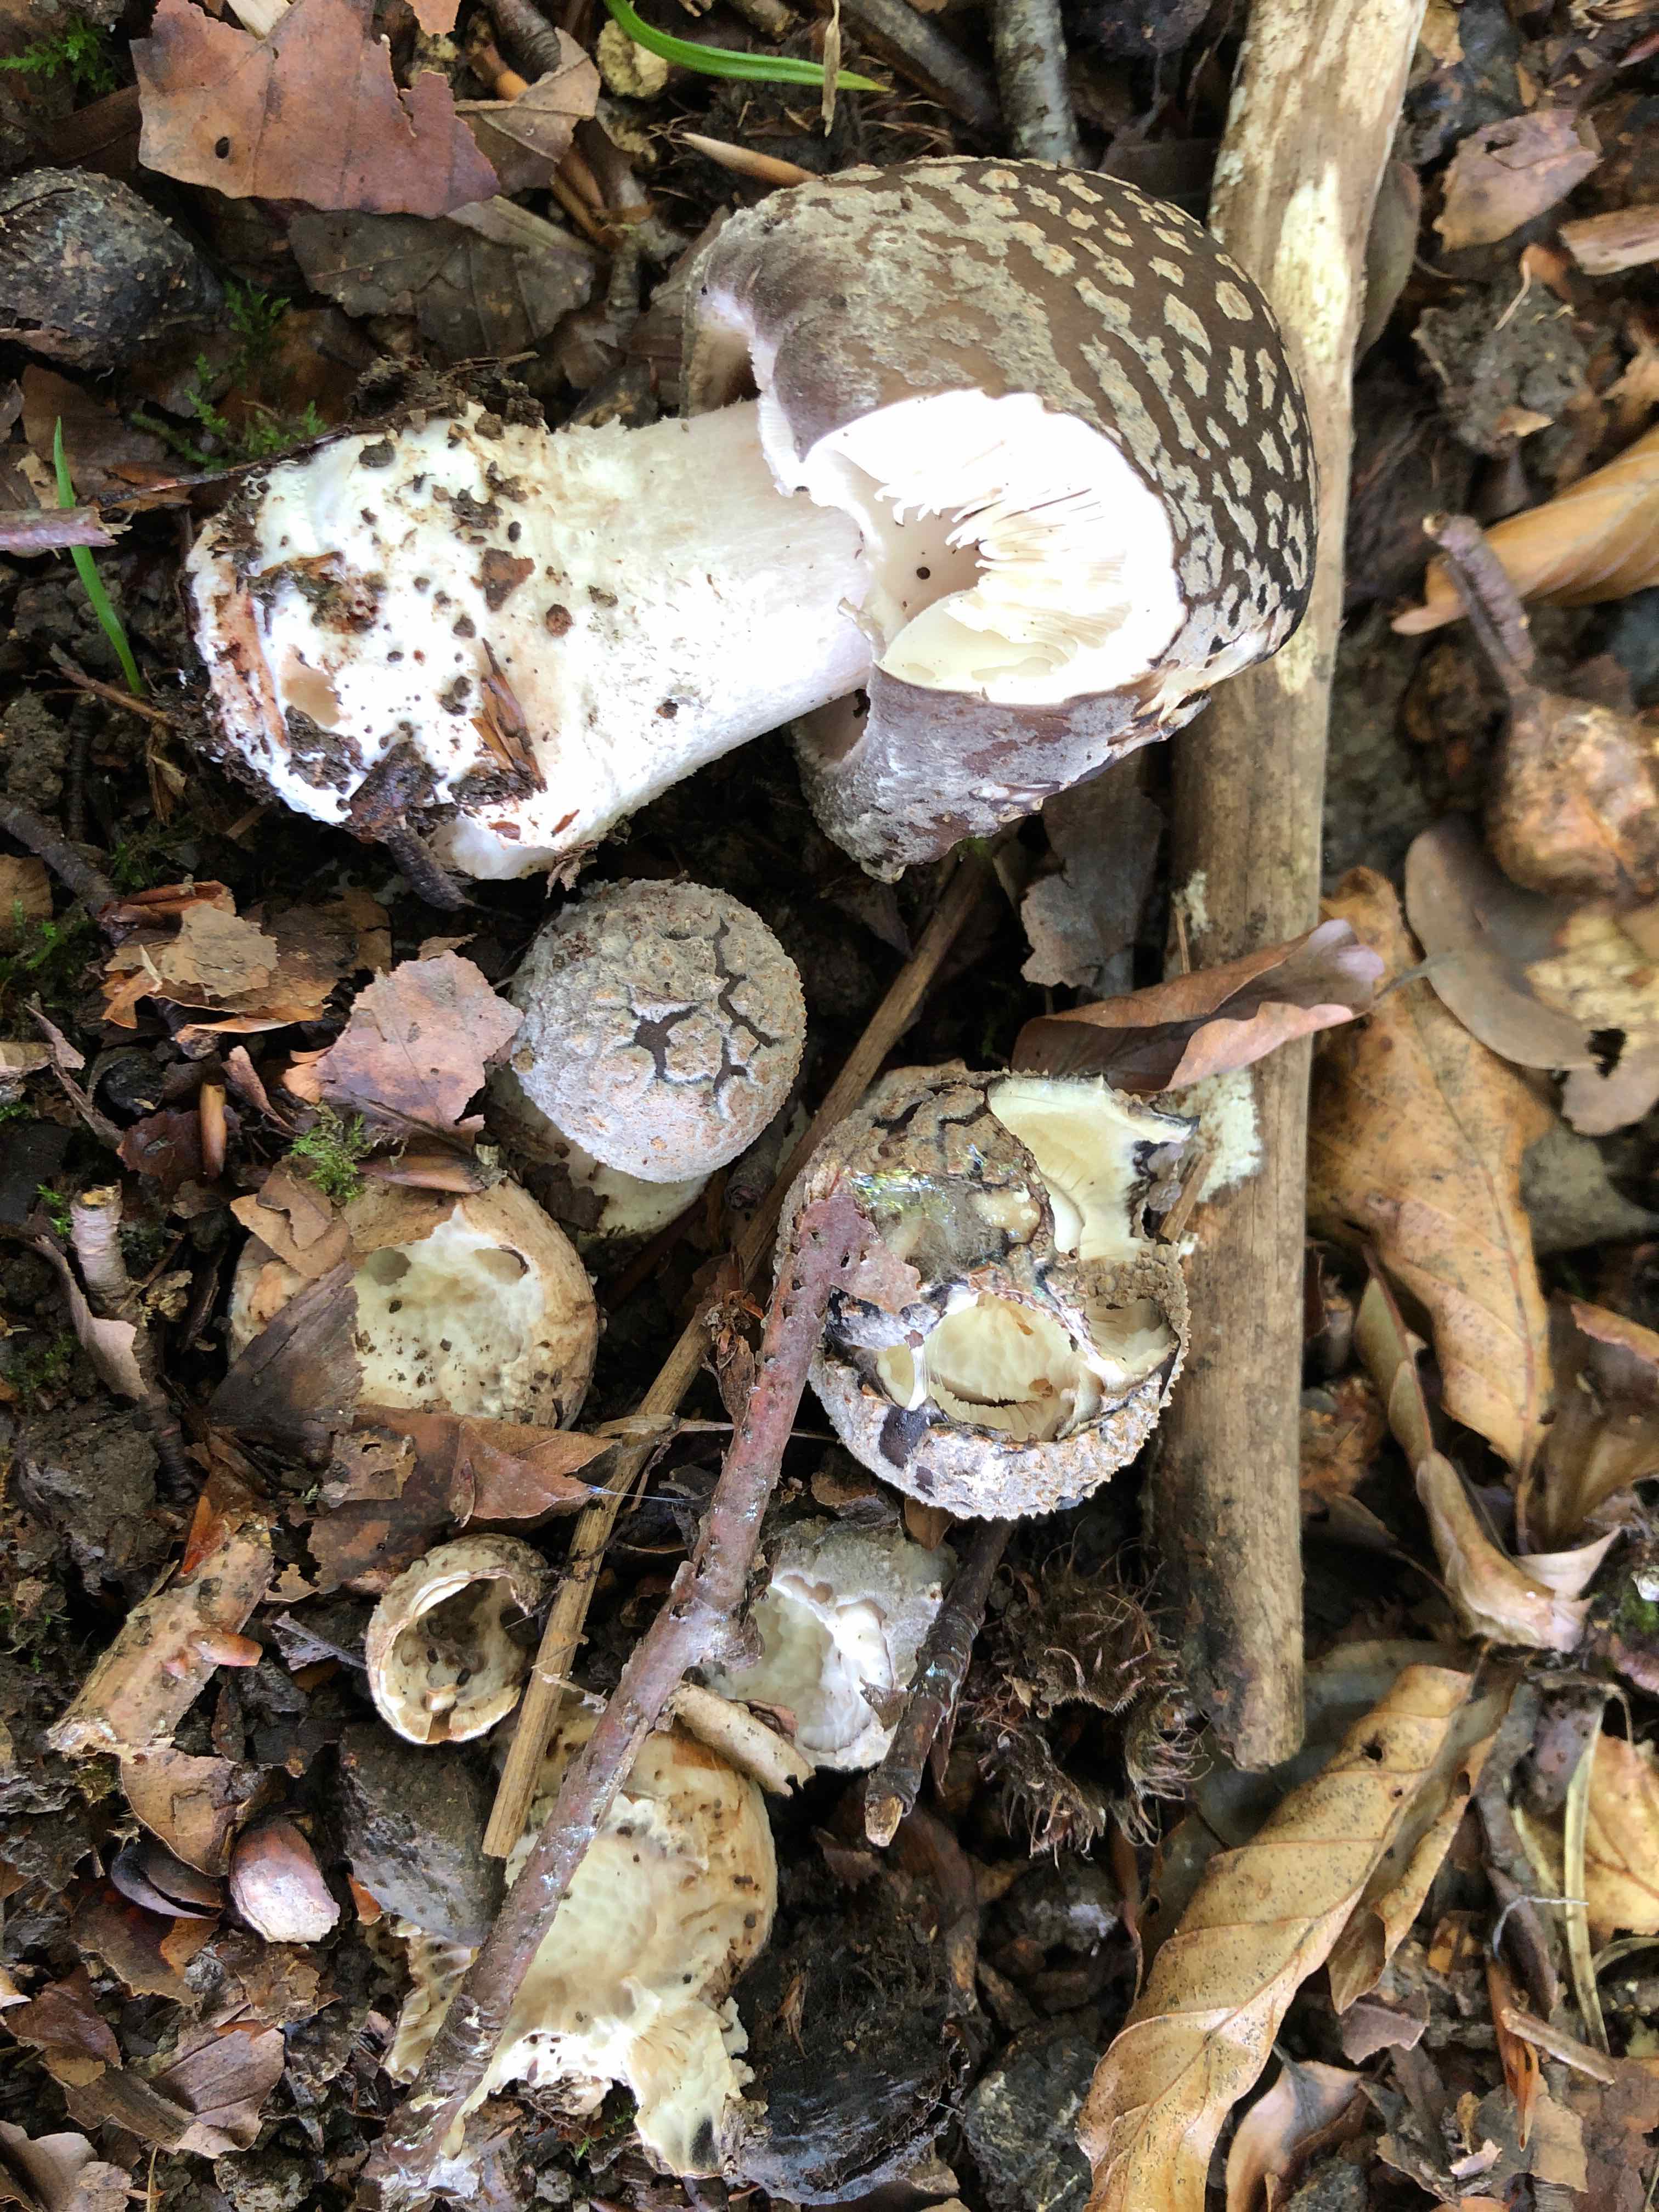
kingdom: Fungi
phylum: Basidiomycota
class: Agaricomycetes
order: Agaricales
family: Amanitaceae
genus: Amanita
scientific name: Amanita
